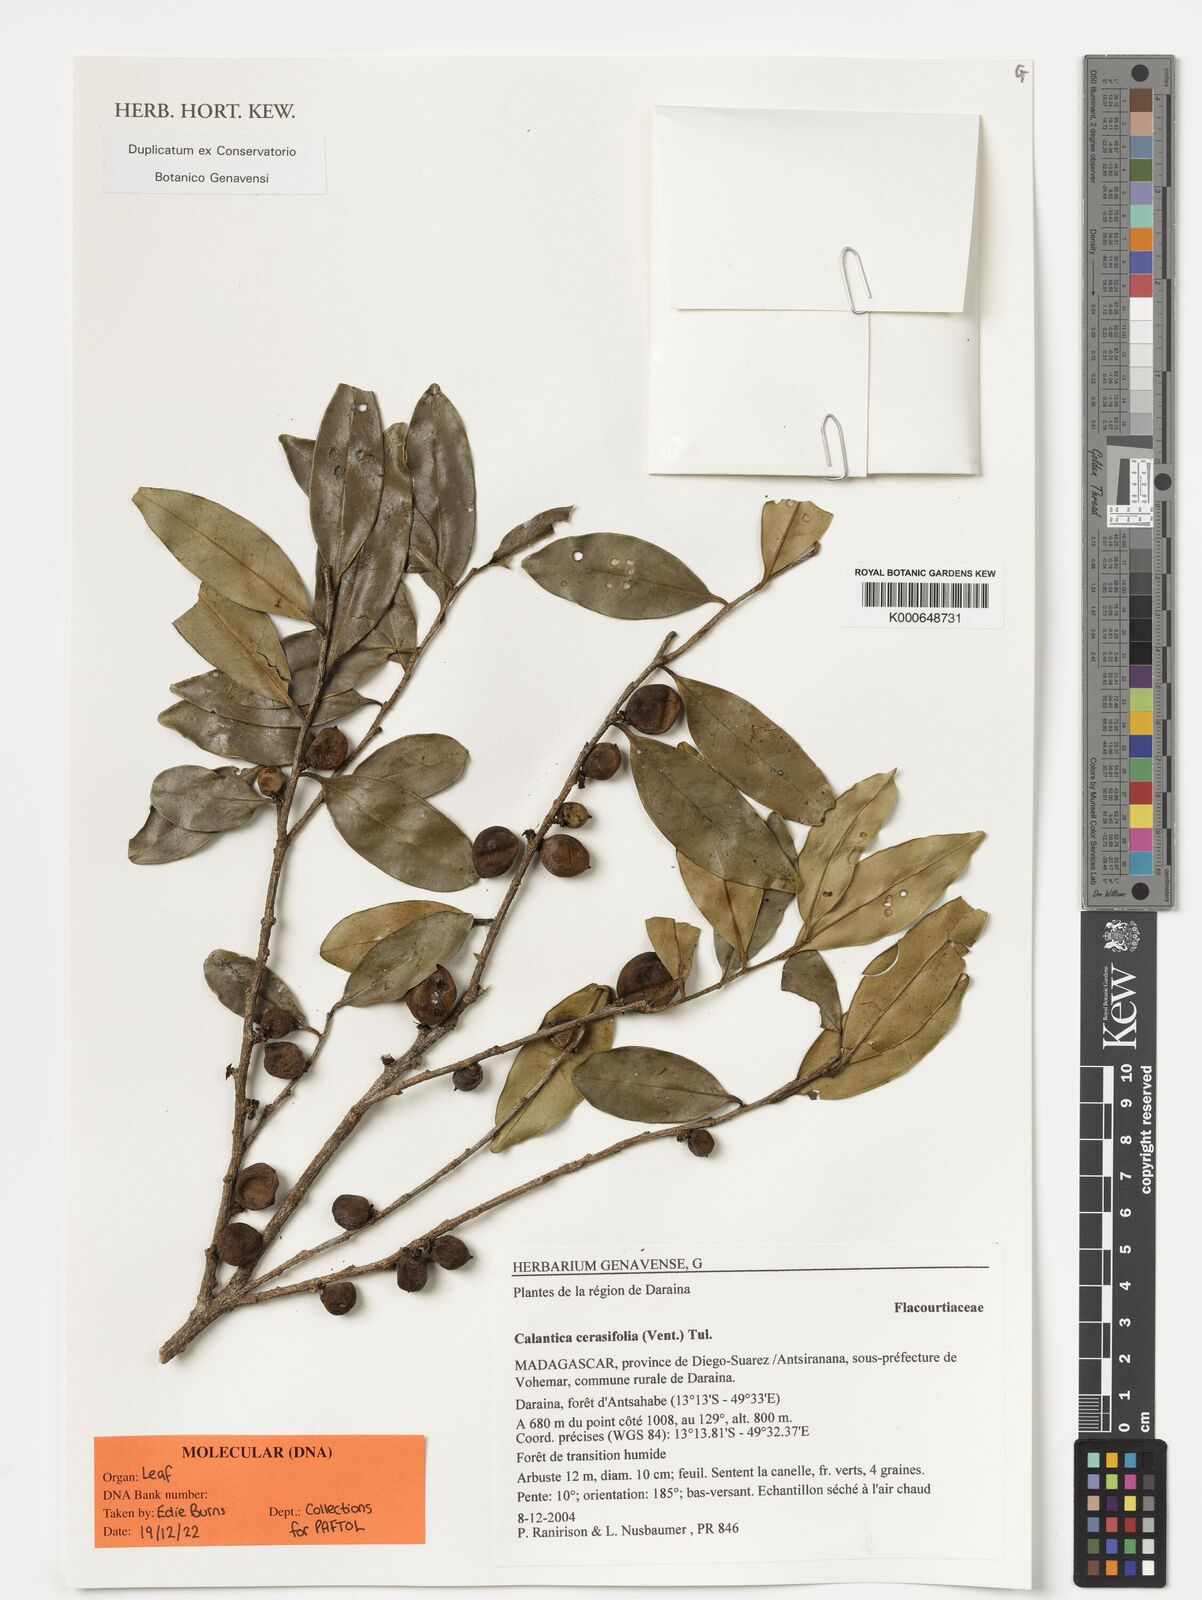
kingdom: Plantae
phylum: Tracheophyta
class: Magnoliopsida
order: Malpighiales
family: Salicaceae
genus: Calantica
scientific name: Calantica cerasifolia
